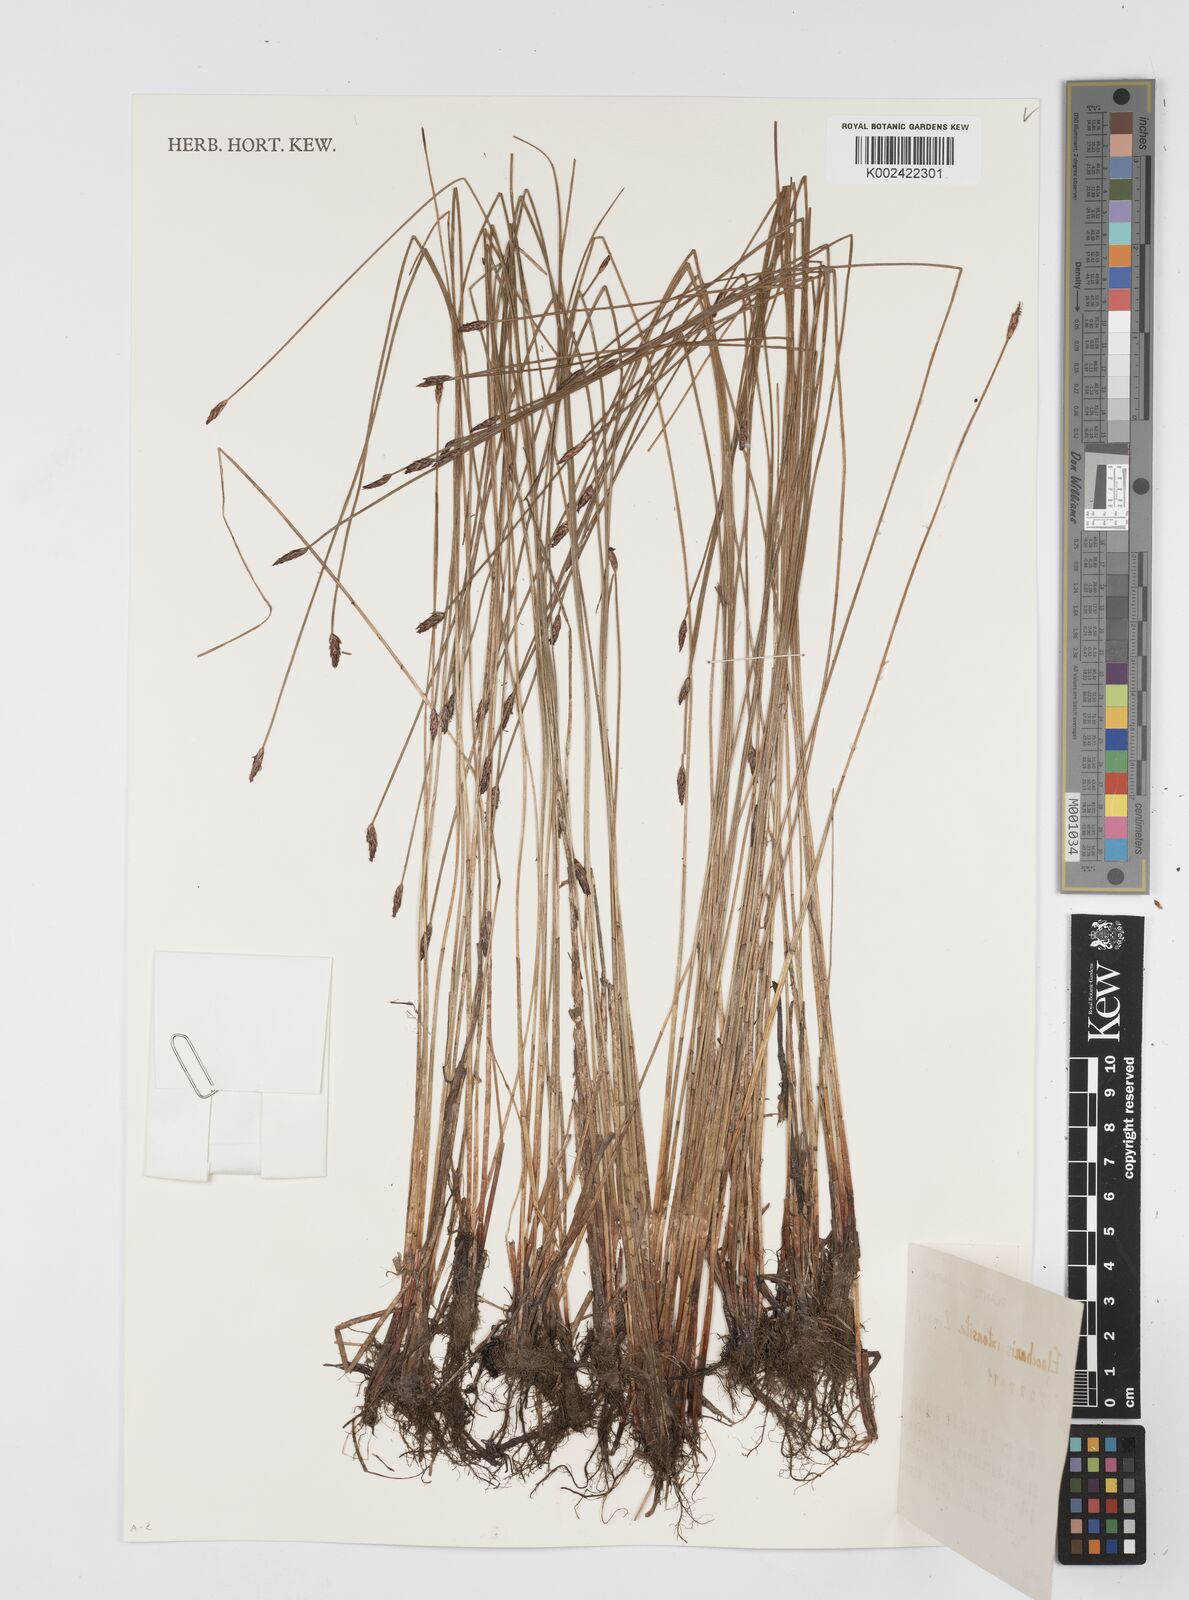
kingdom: Plantae
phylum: Tracheophyta
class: Liliopsida
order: Poales
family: Cyperaceae
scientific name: Cyperaceae
